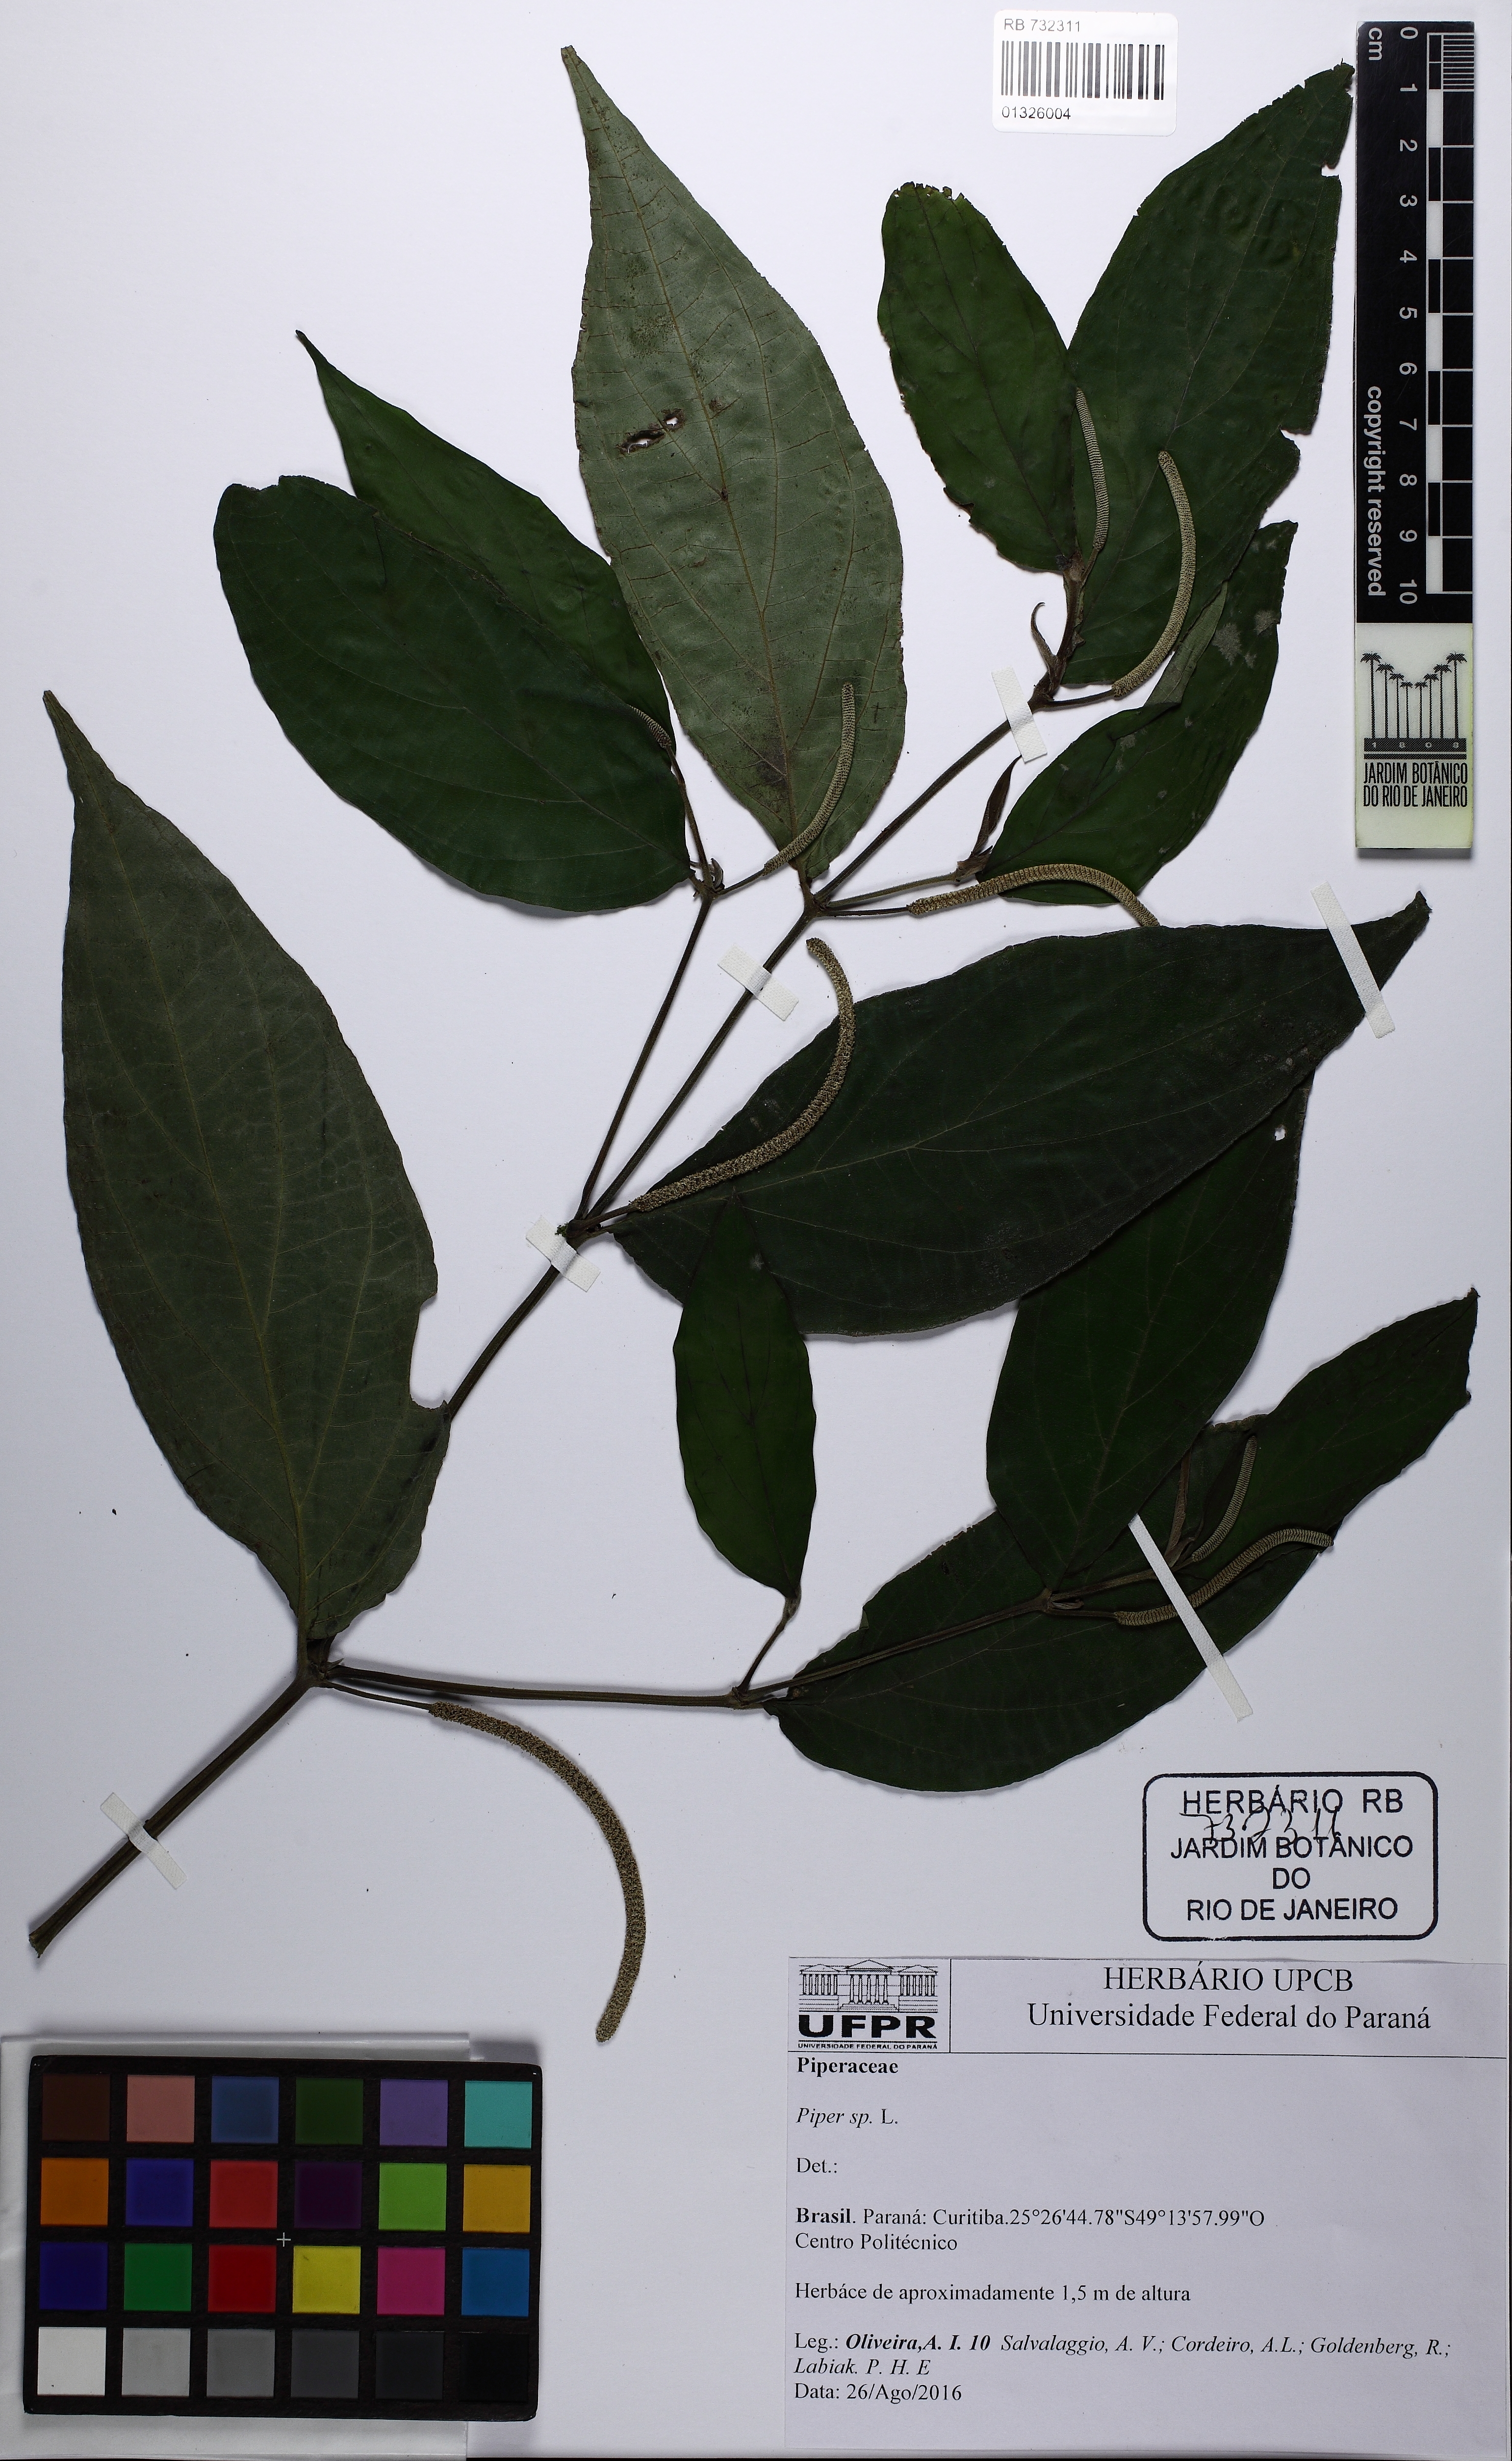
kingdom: Plantae
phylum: Tracheophyta
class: Magnoliopsida
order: Piperales
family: Piperaceae
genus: Piper
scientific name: Piper aduncum
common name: Spiked pepper
